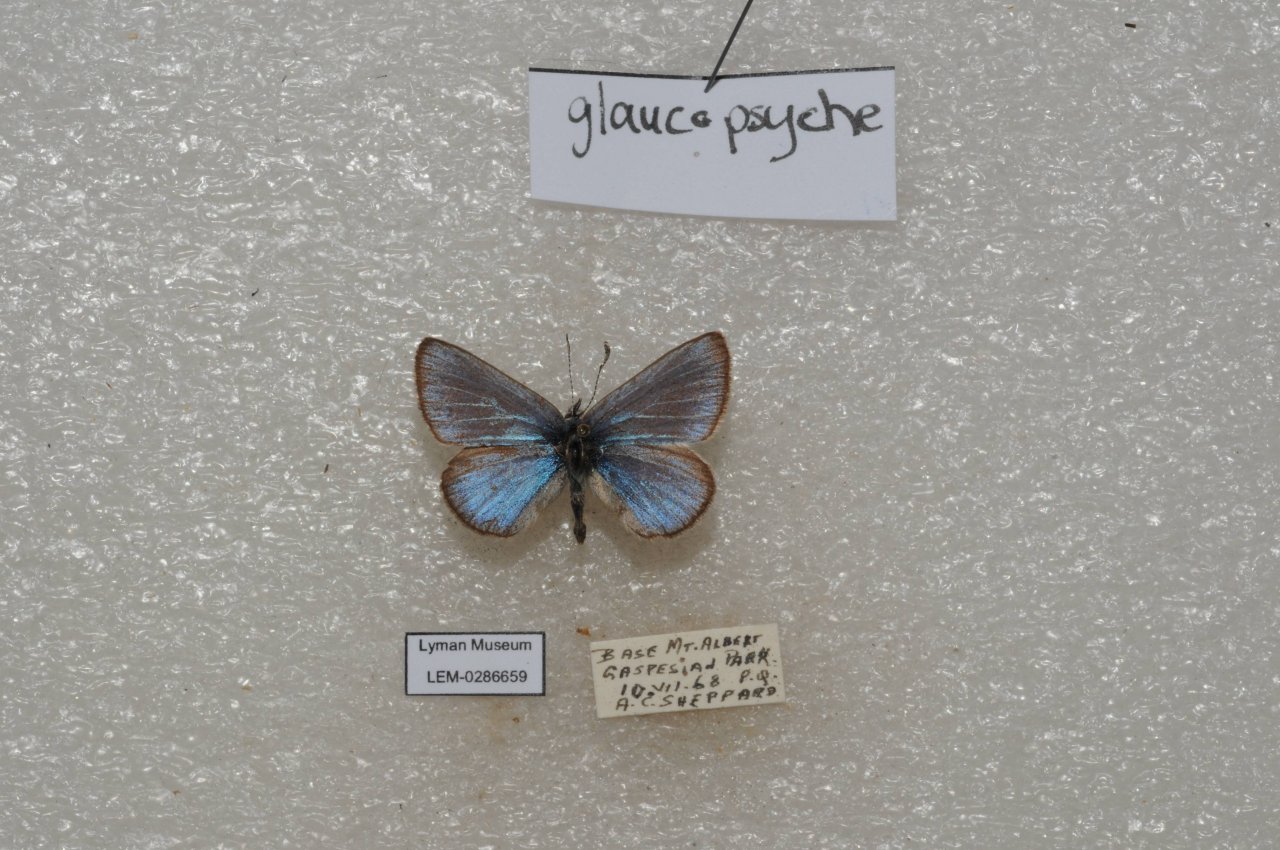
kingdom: Animalia
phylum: Arthropoda
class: Insecta
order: Lepidoptera
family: Lycaenidae
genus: Glaucopsyche
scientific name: Glaucopsyche lygdamus
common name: Silvery Blue
